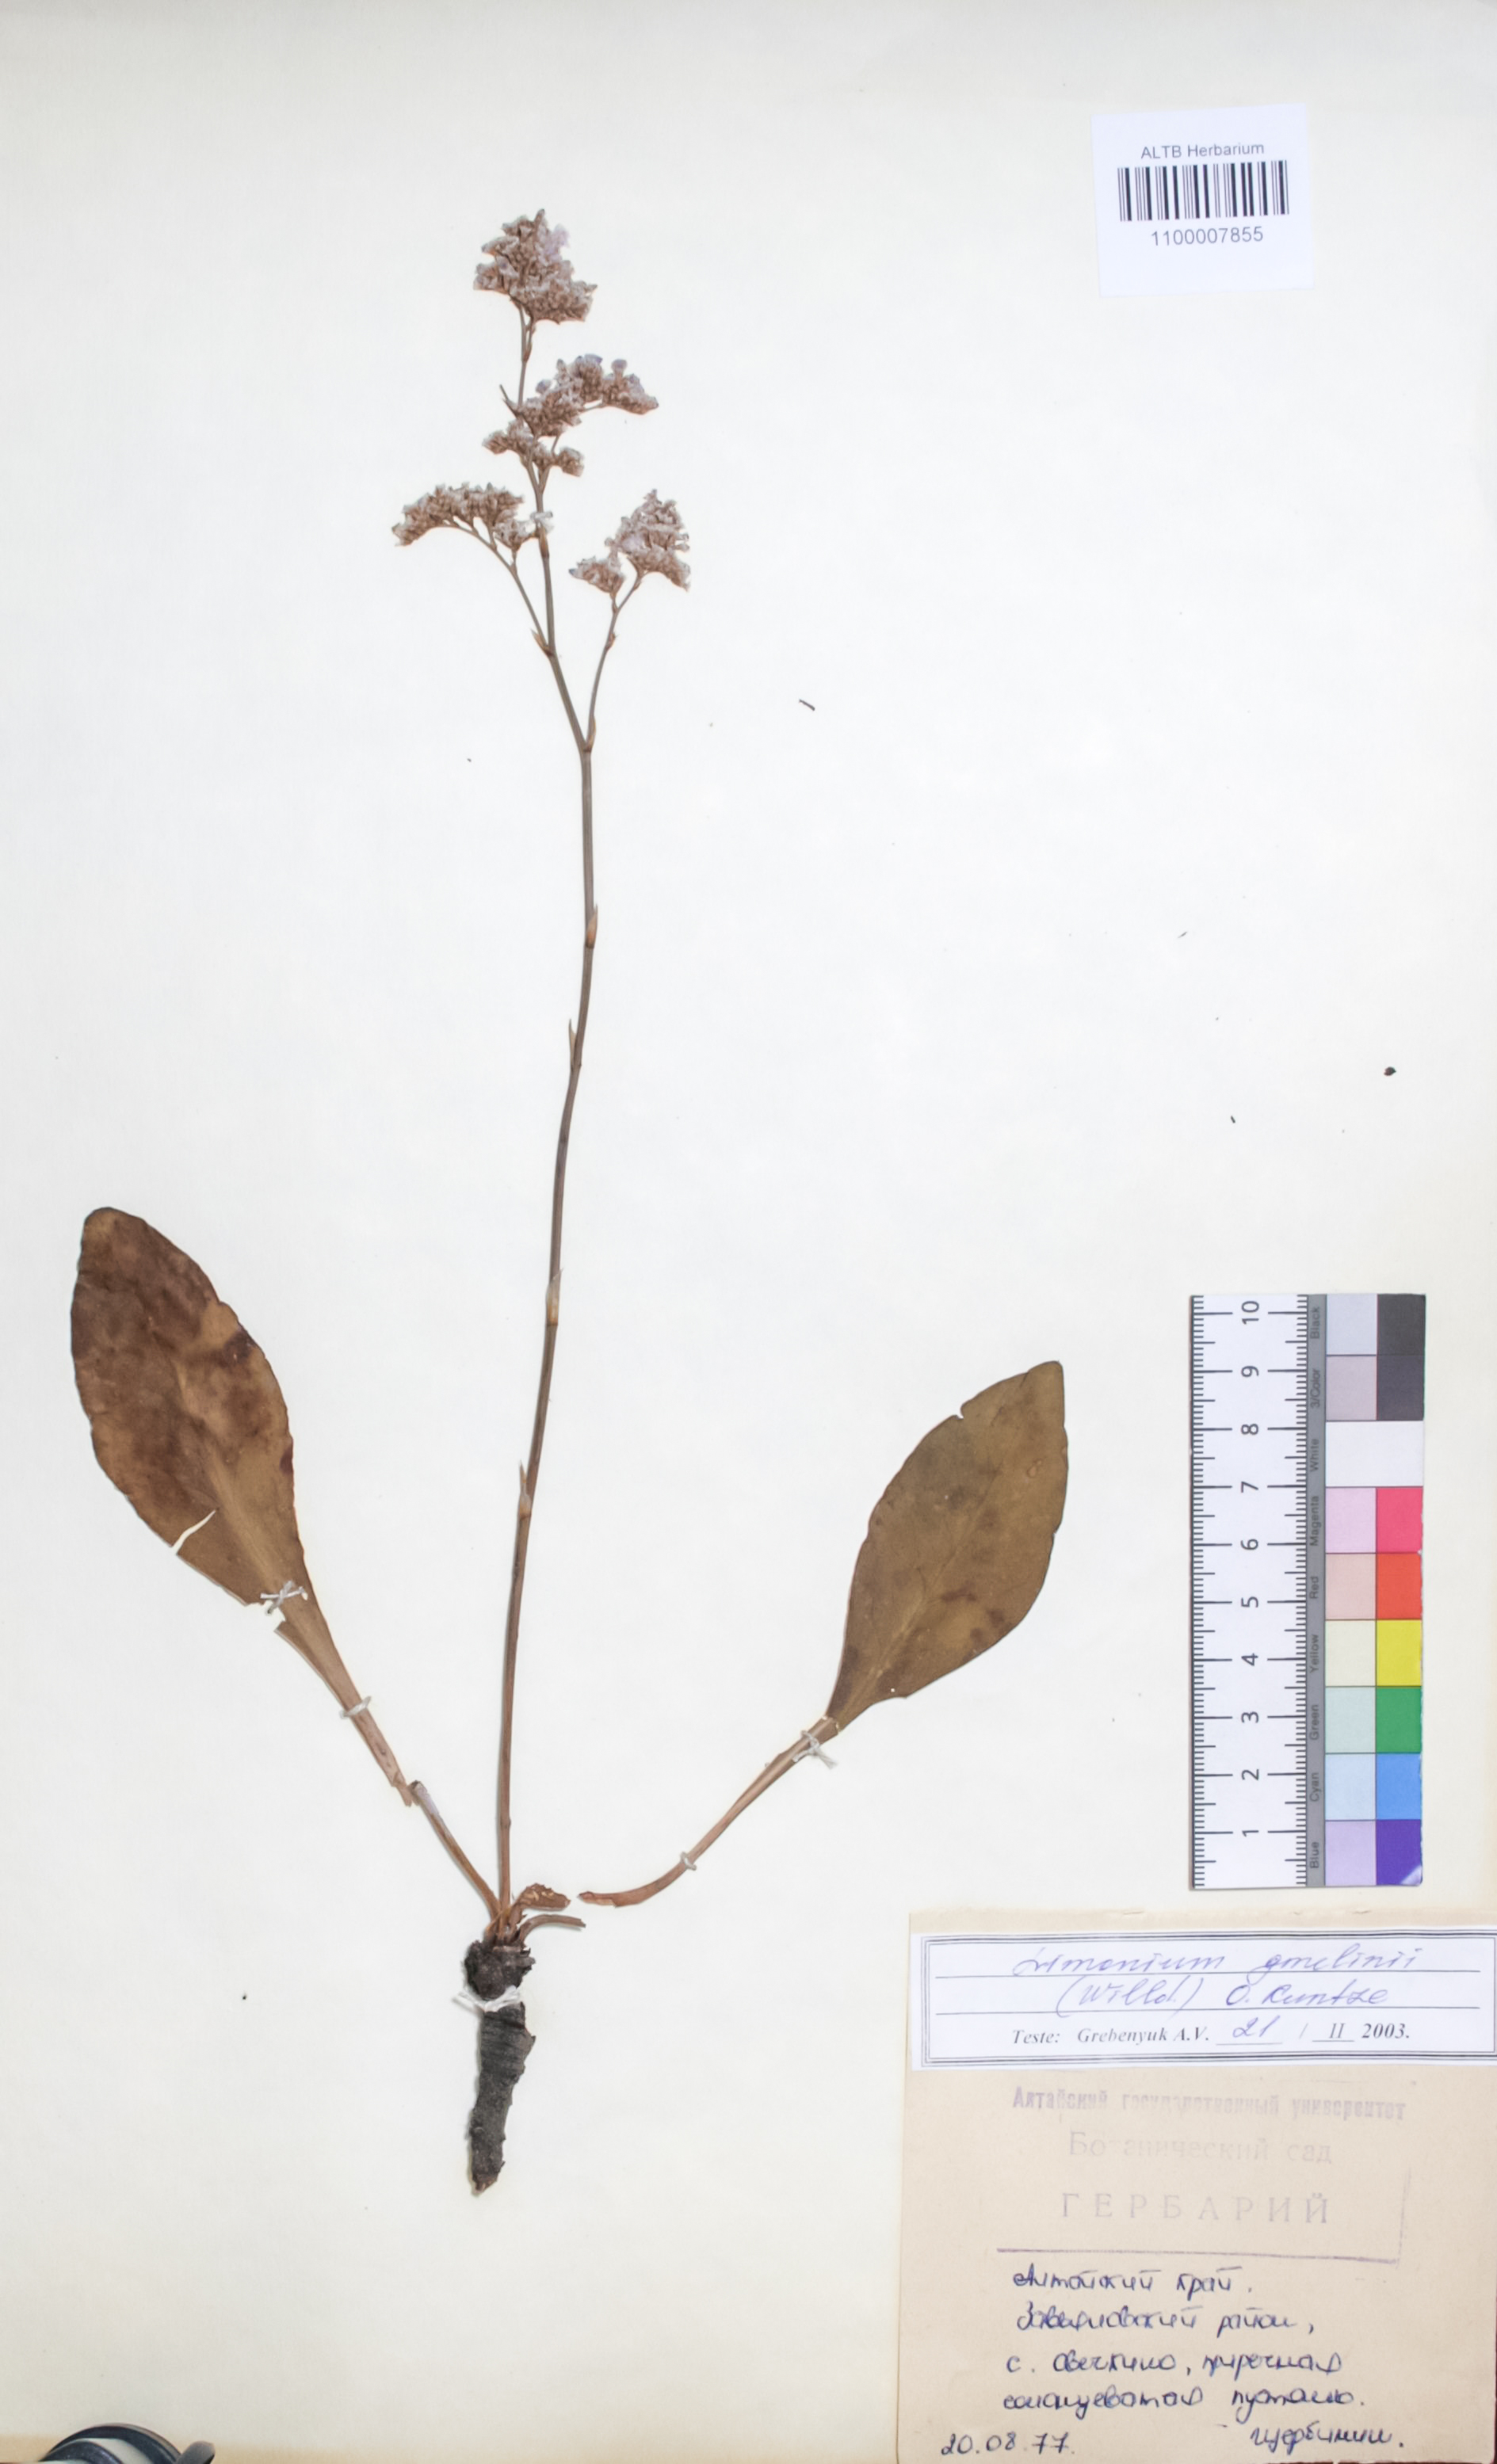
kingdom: Plantae
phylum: Tracheophyta
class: Magnoliopsida
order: Caryophyllales
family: Plumbaginaceae
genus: Limonium
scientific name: Limonium gmelini
